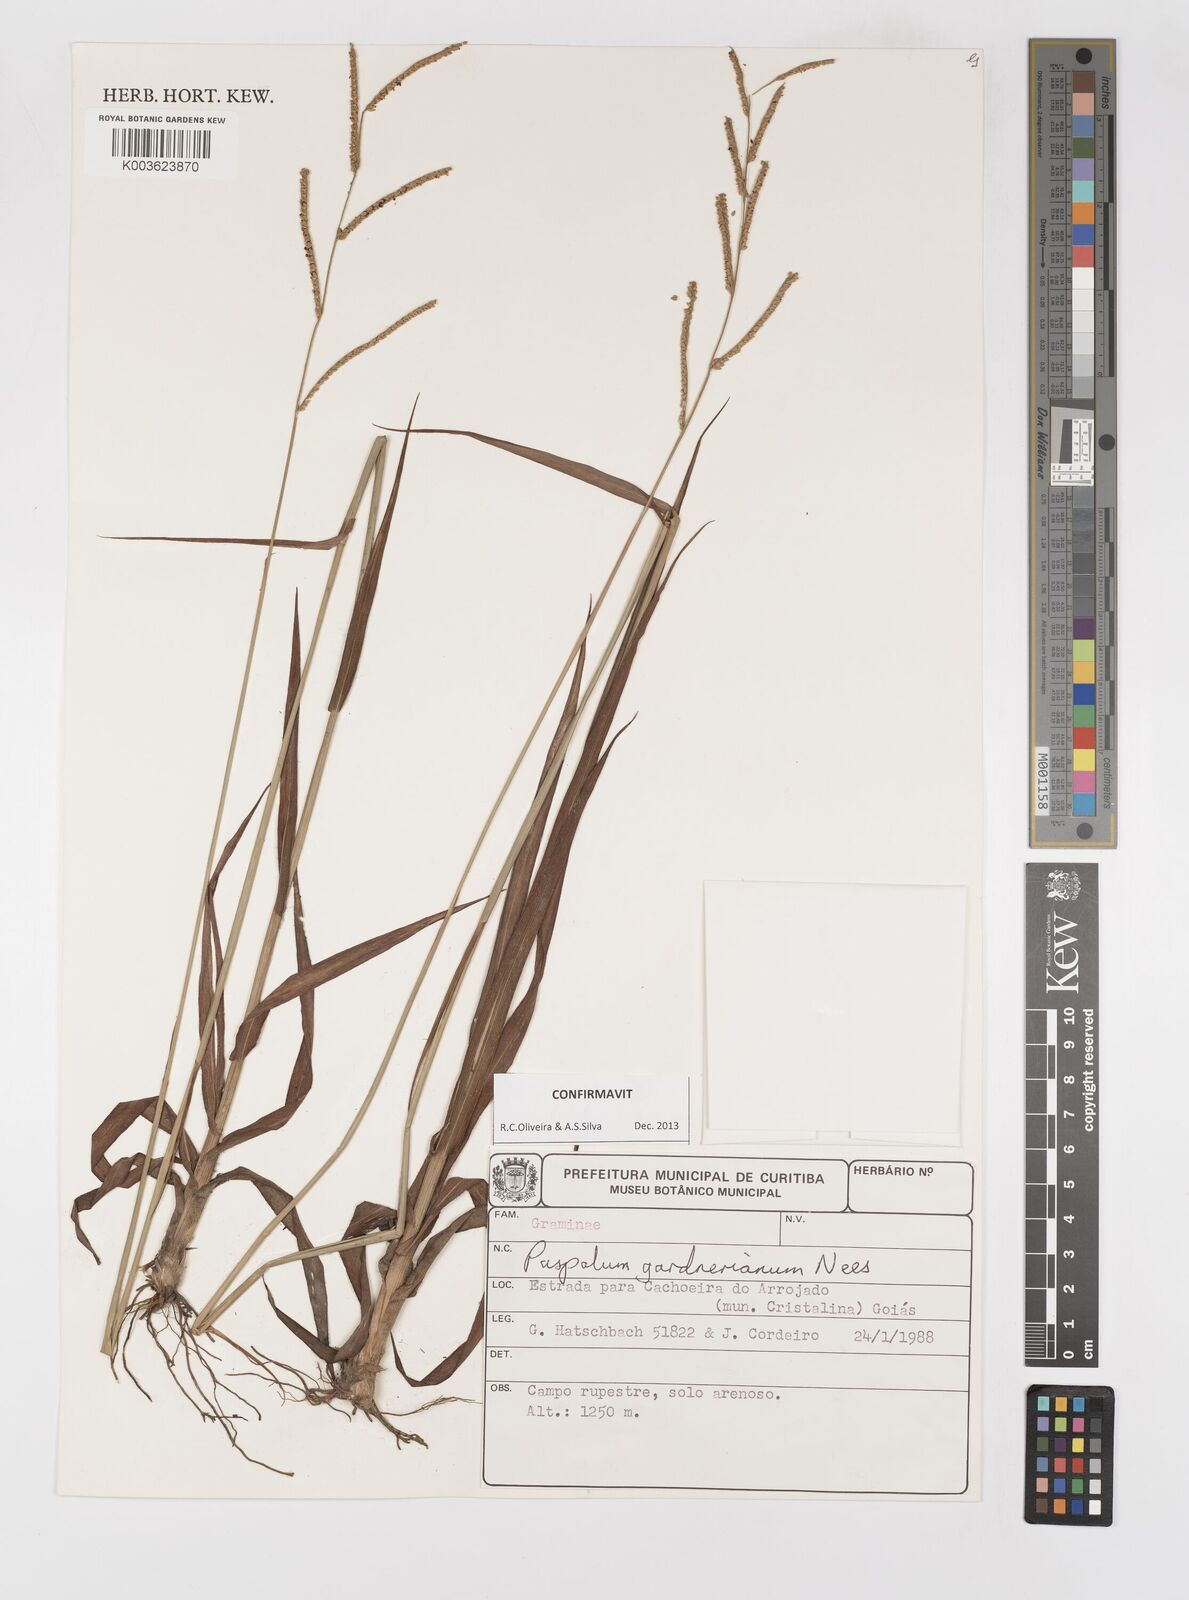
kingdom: Plantae
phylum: Tracheophyta
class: Liliopsida
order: Poales
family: Poaceae
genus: Paspalum
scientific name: Paspalum gardnerianum
